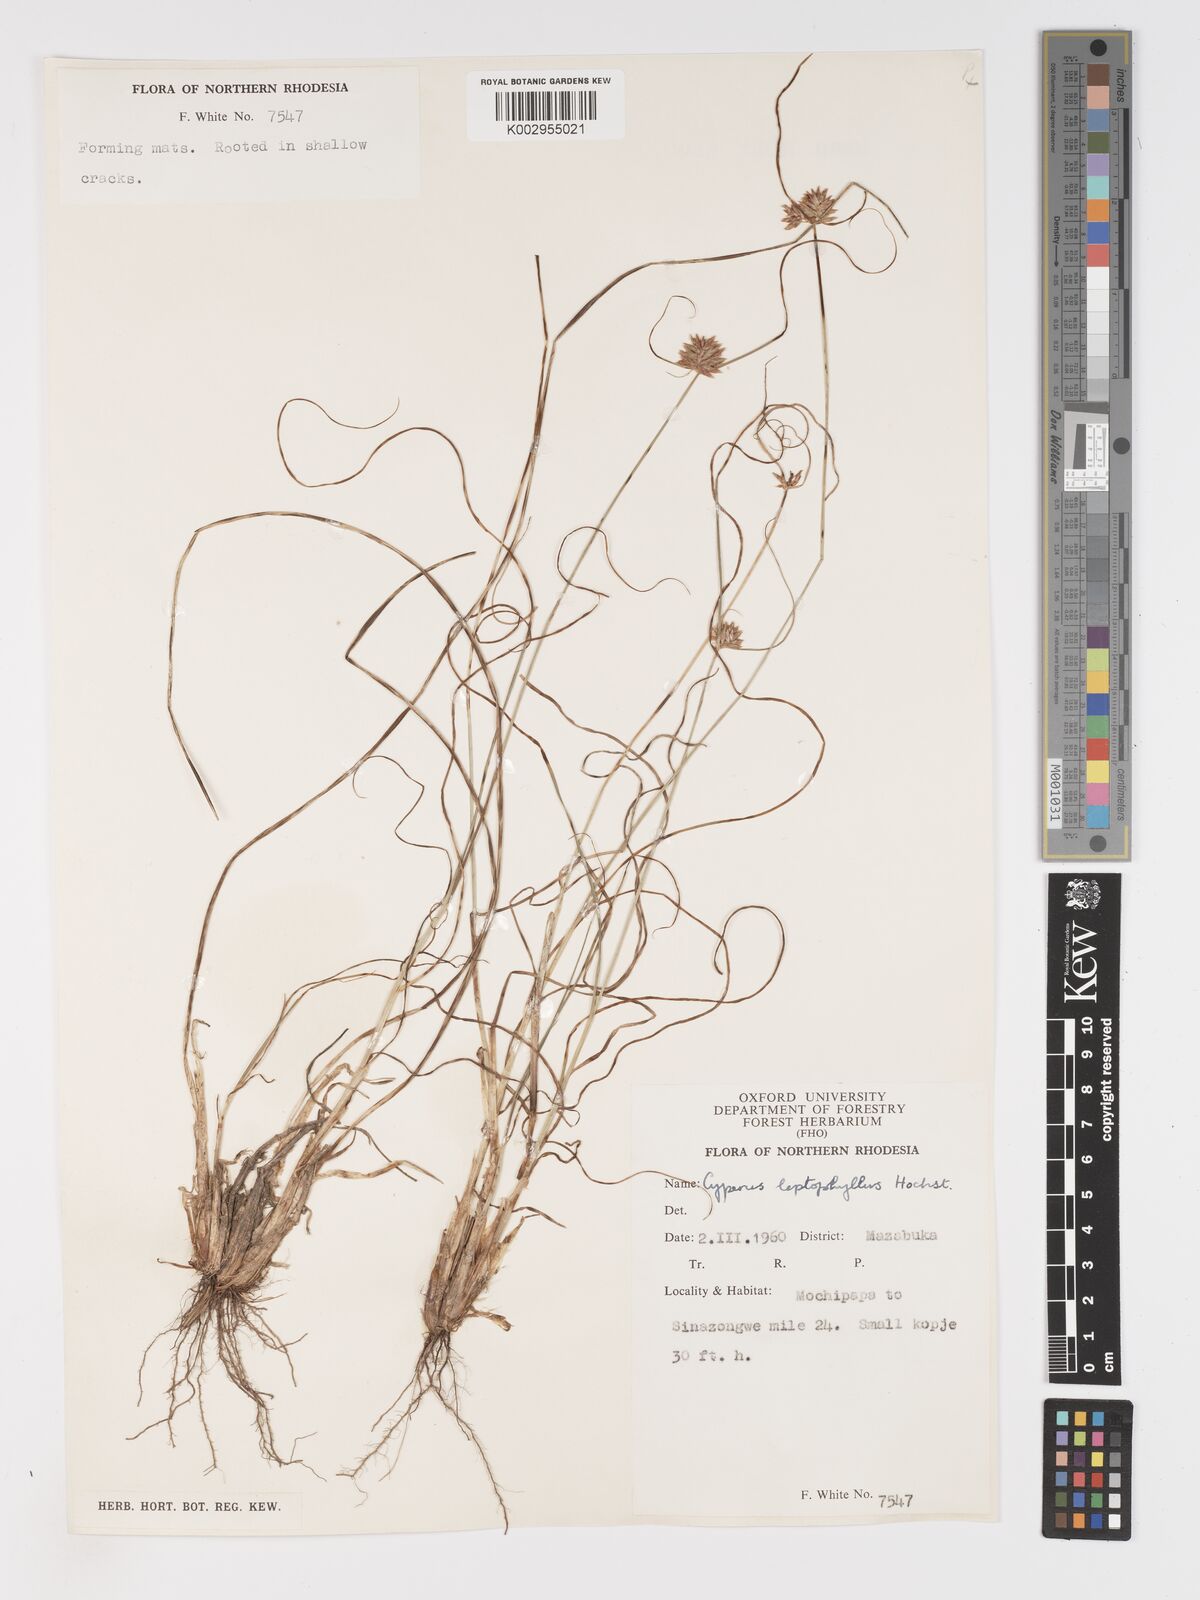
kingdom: Plantae
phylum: Tracheophyta
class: Liliopsida
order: Poales
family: Cyperaceae
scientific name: Cyperaceae
